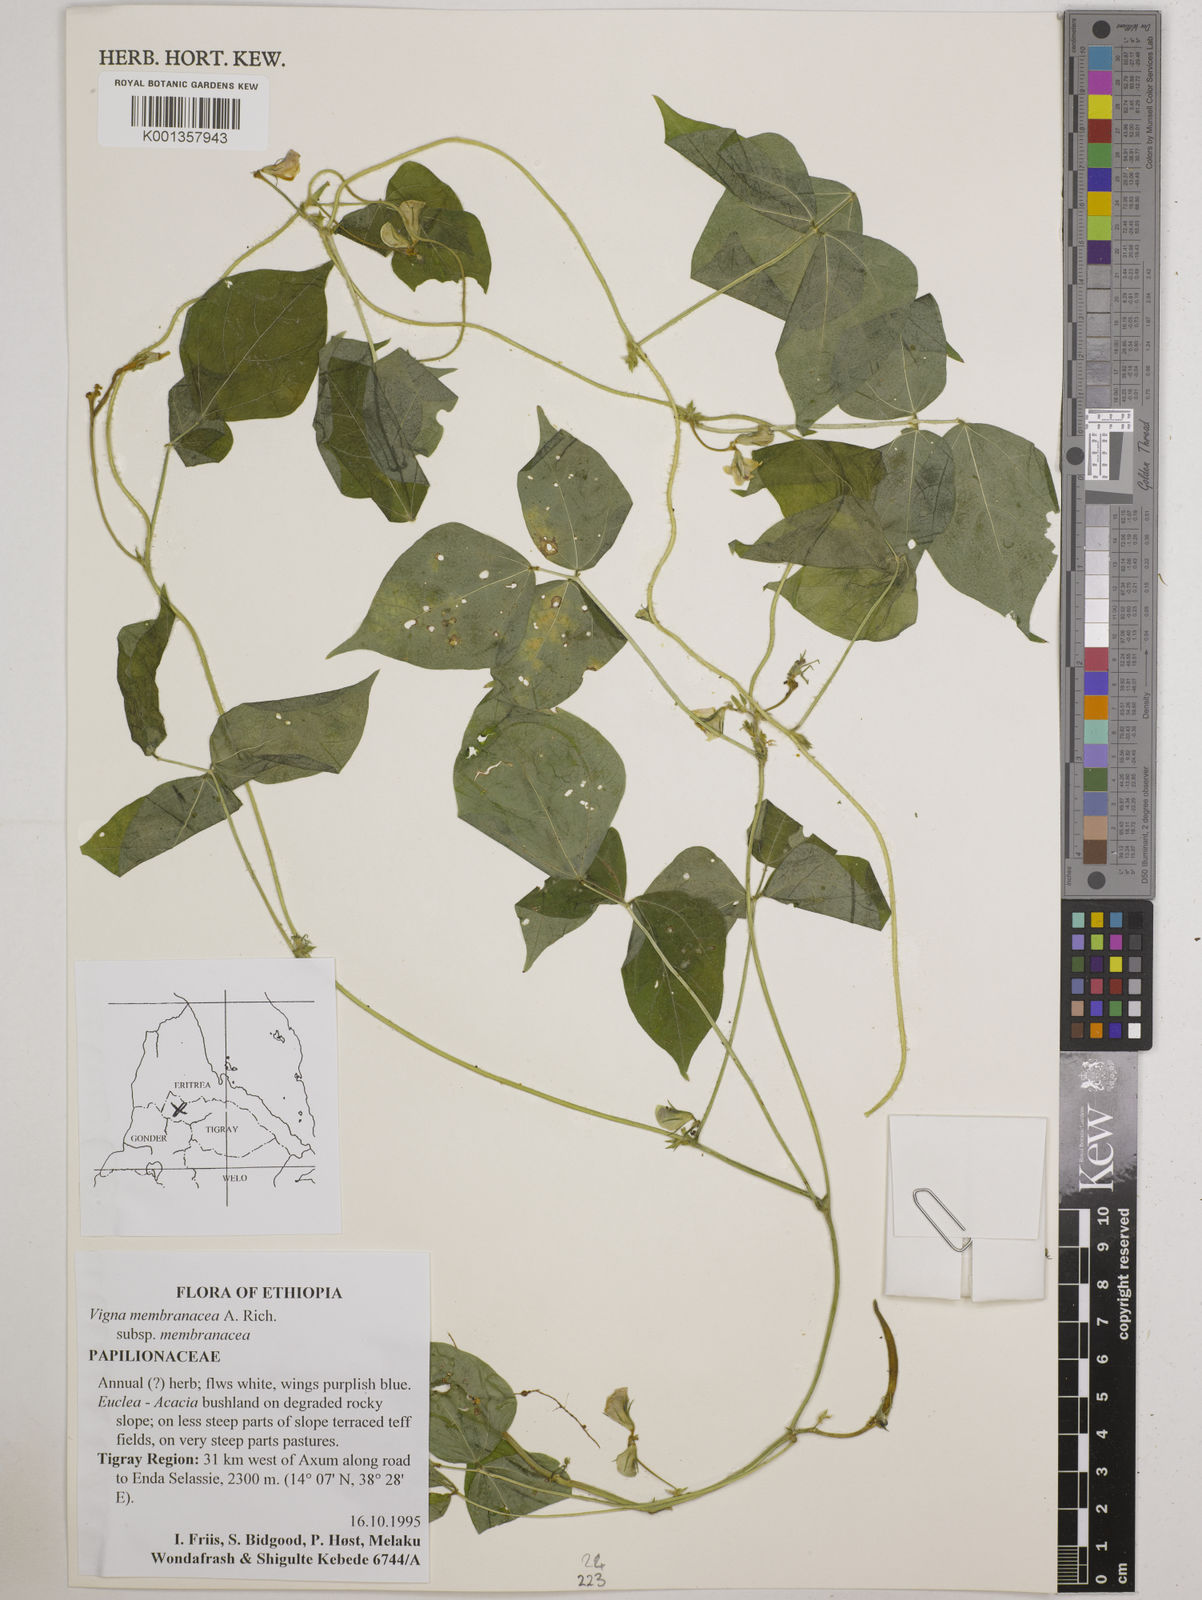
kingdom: Plantae
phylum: Tracheophyta
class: Magnoliopsida
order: Fabales
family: Fabaceae
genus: Vigna
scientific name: Vigna membranacea
